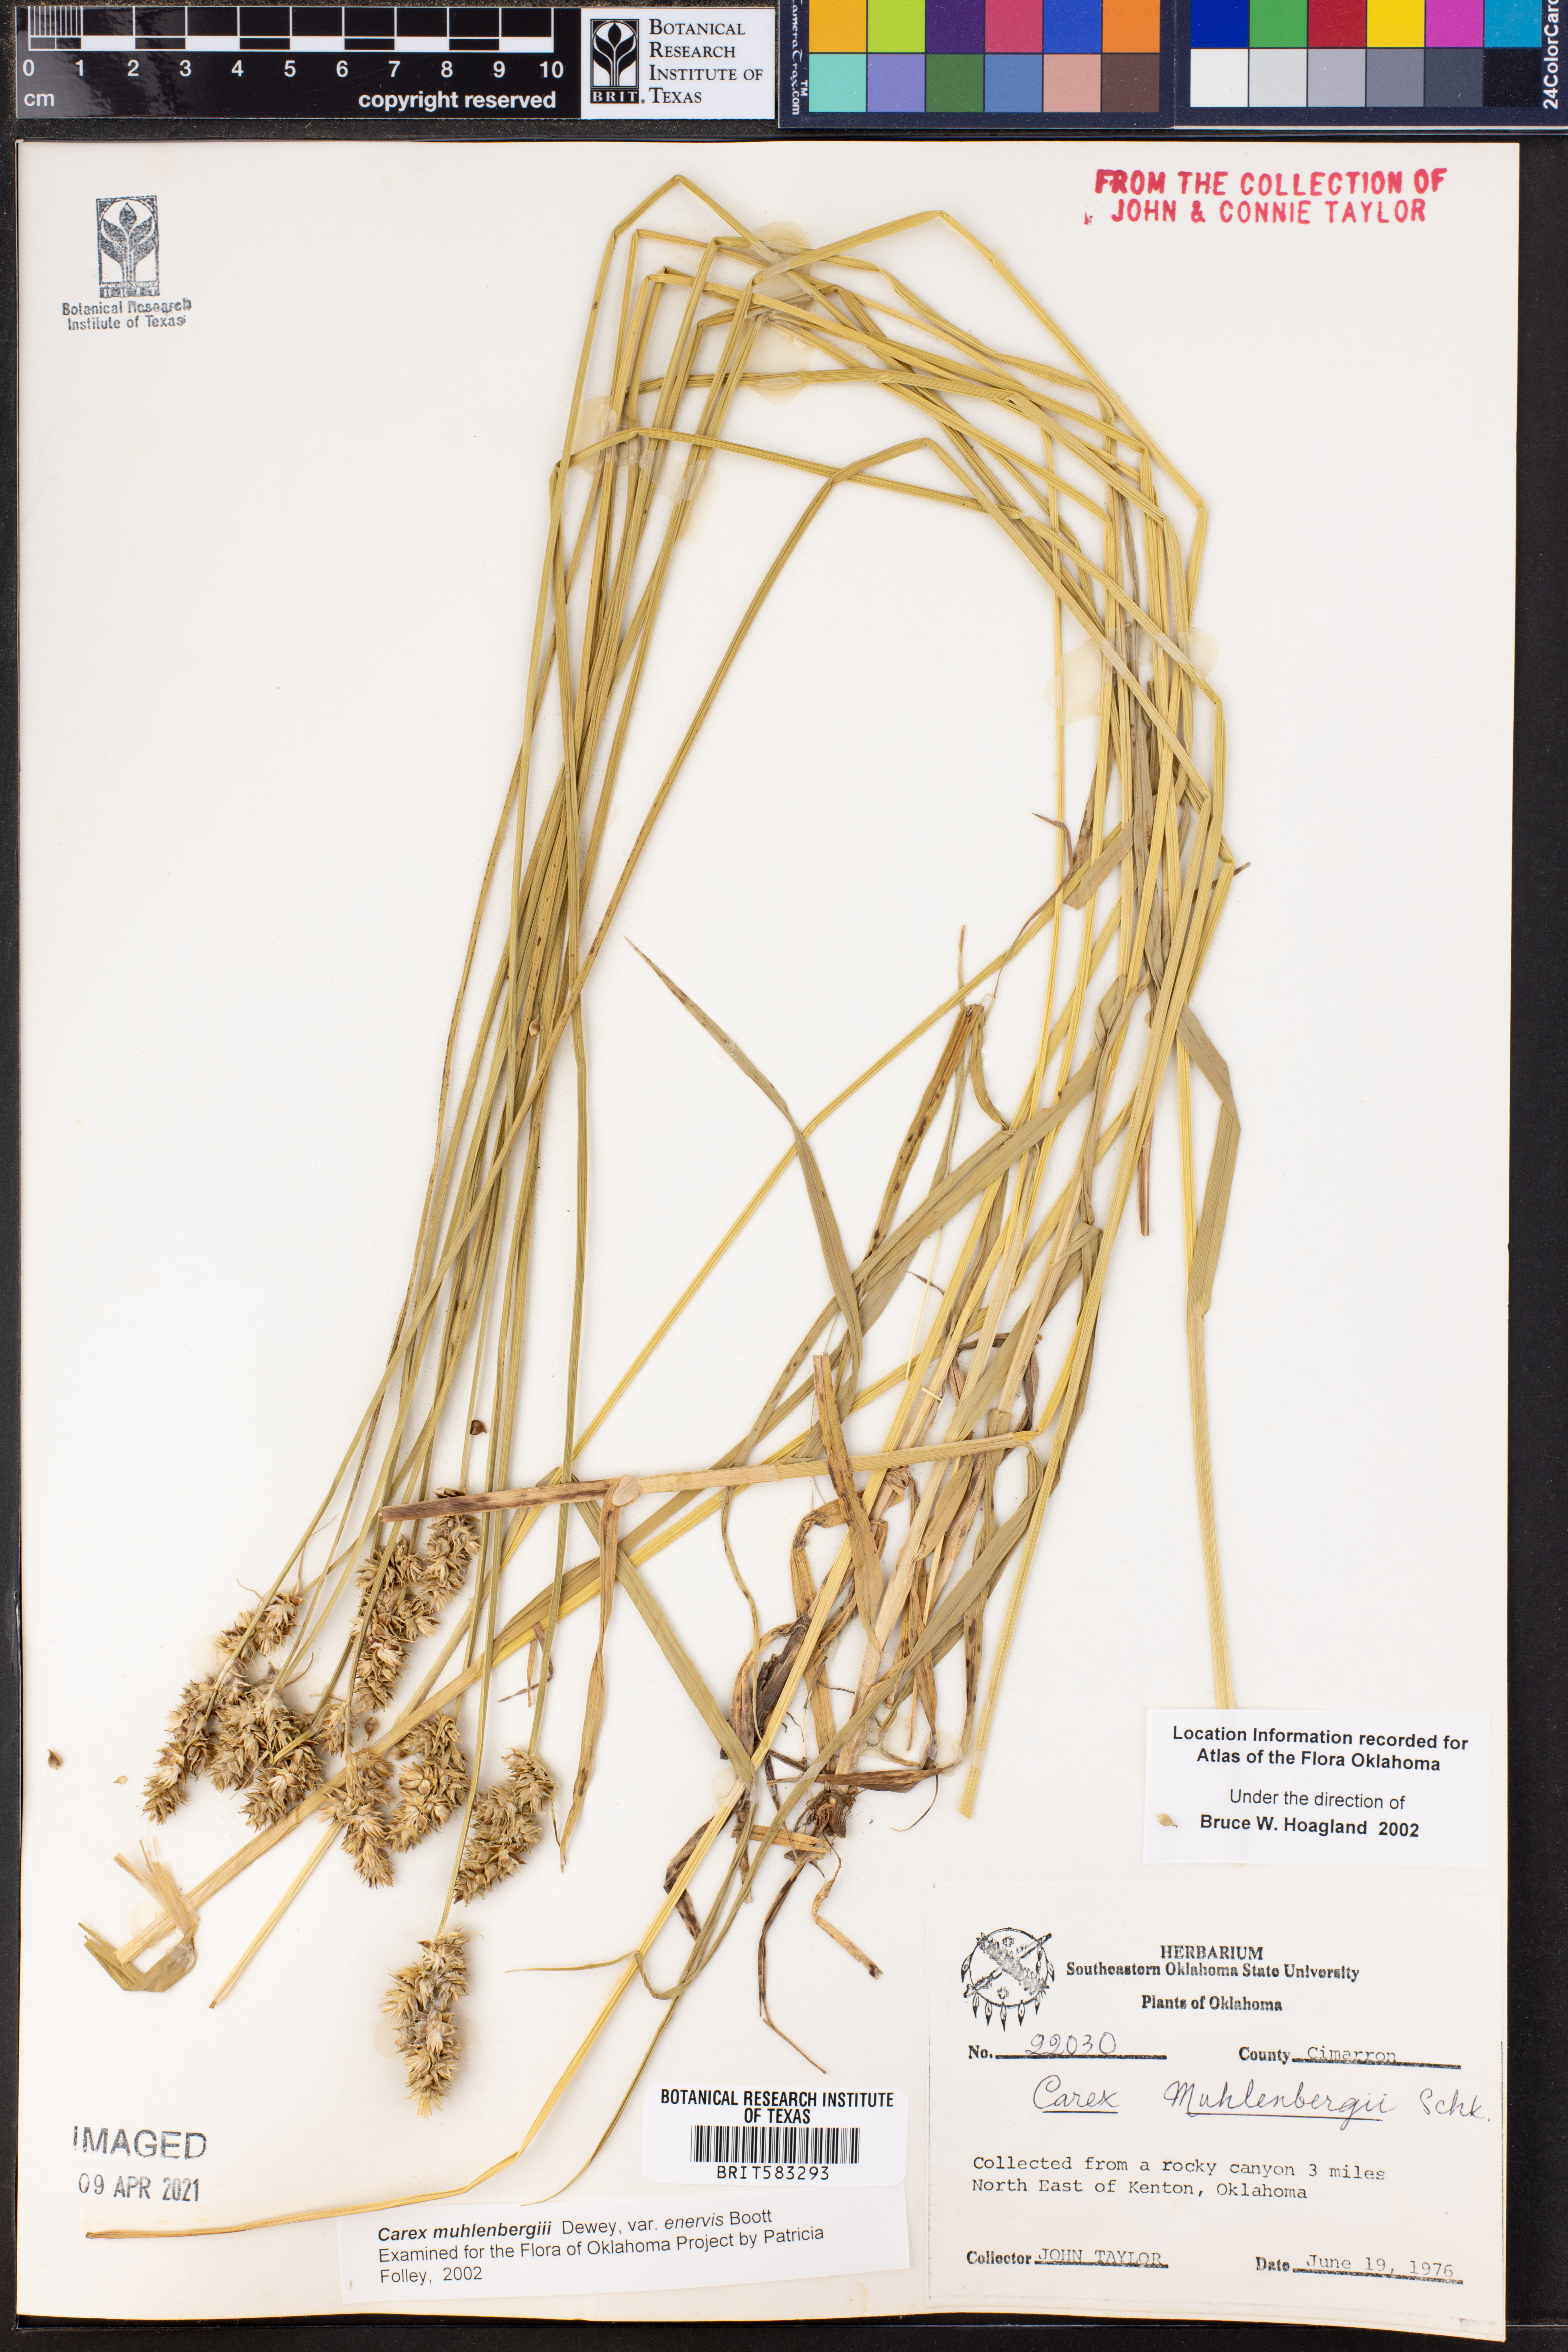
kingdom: Plantae
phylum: Tracheophyta
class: Liliopsida
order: Poales
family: Cyperaceae
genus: Carex
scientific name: Carex vulpinoidea
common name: American fox-sedge
